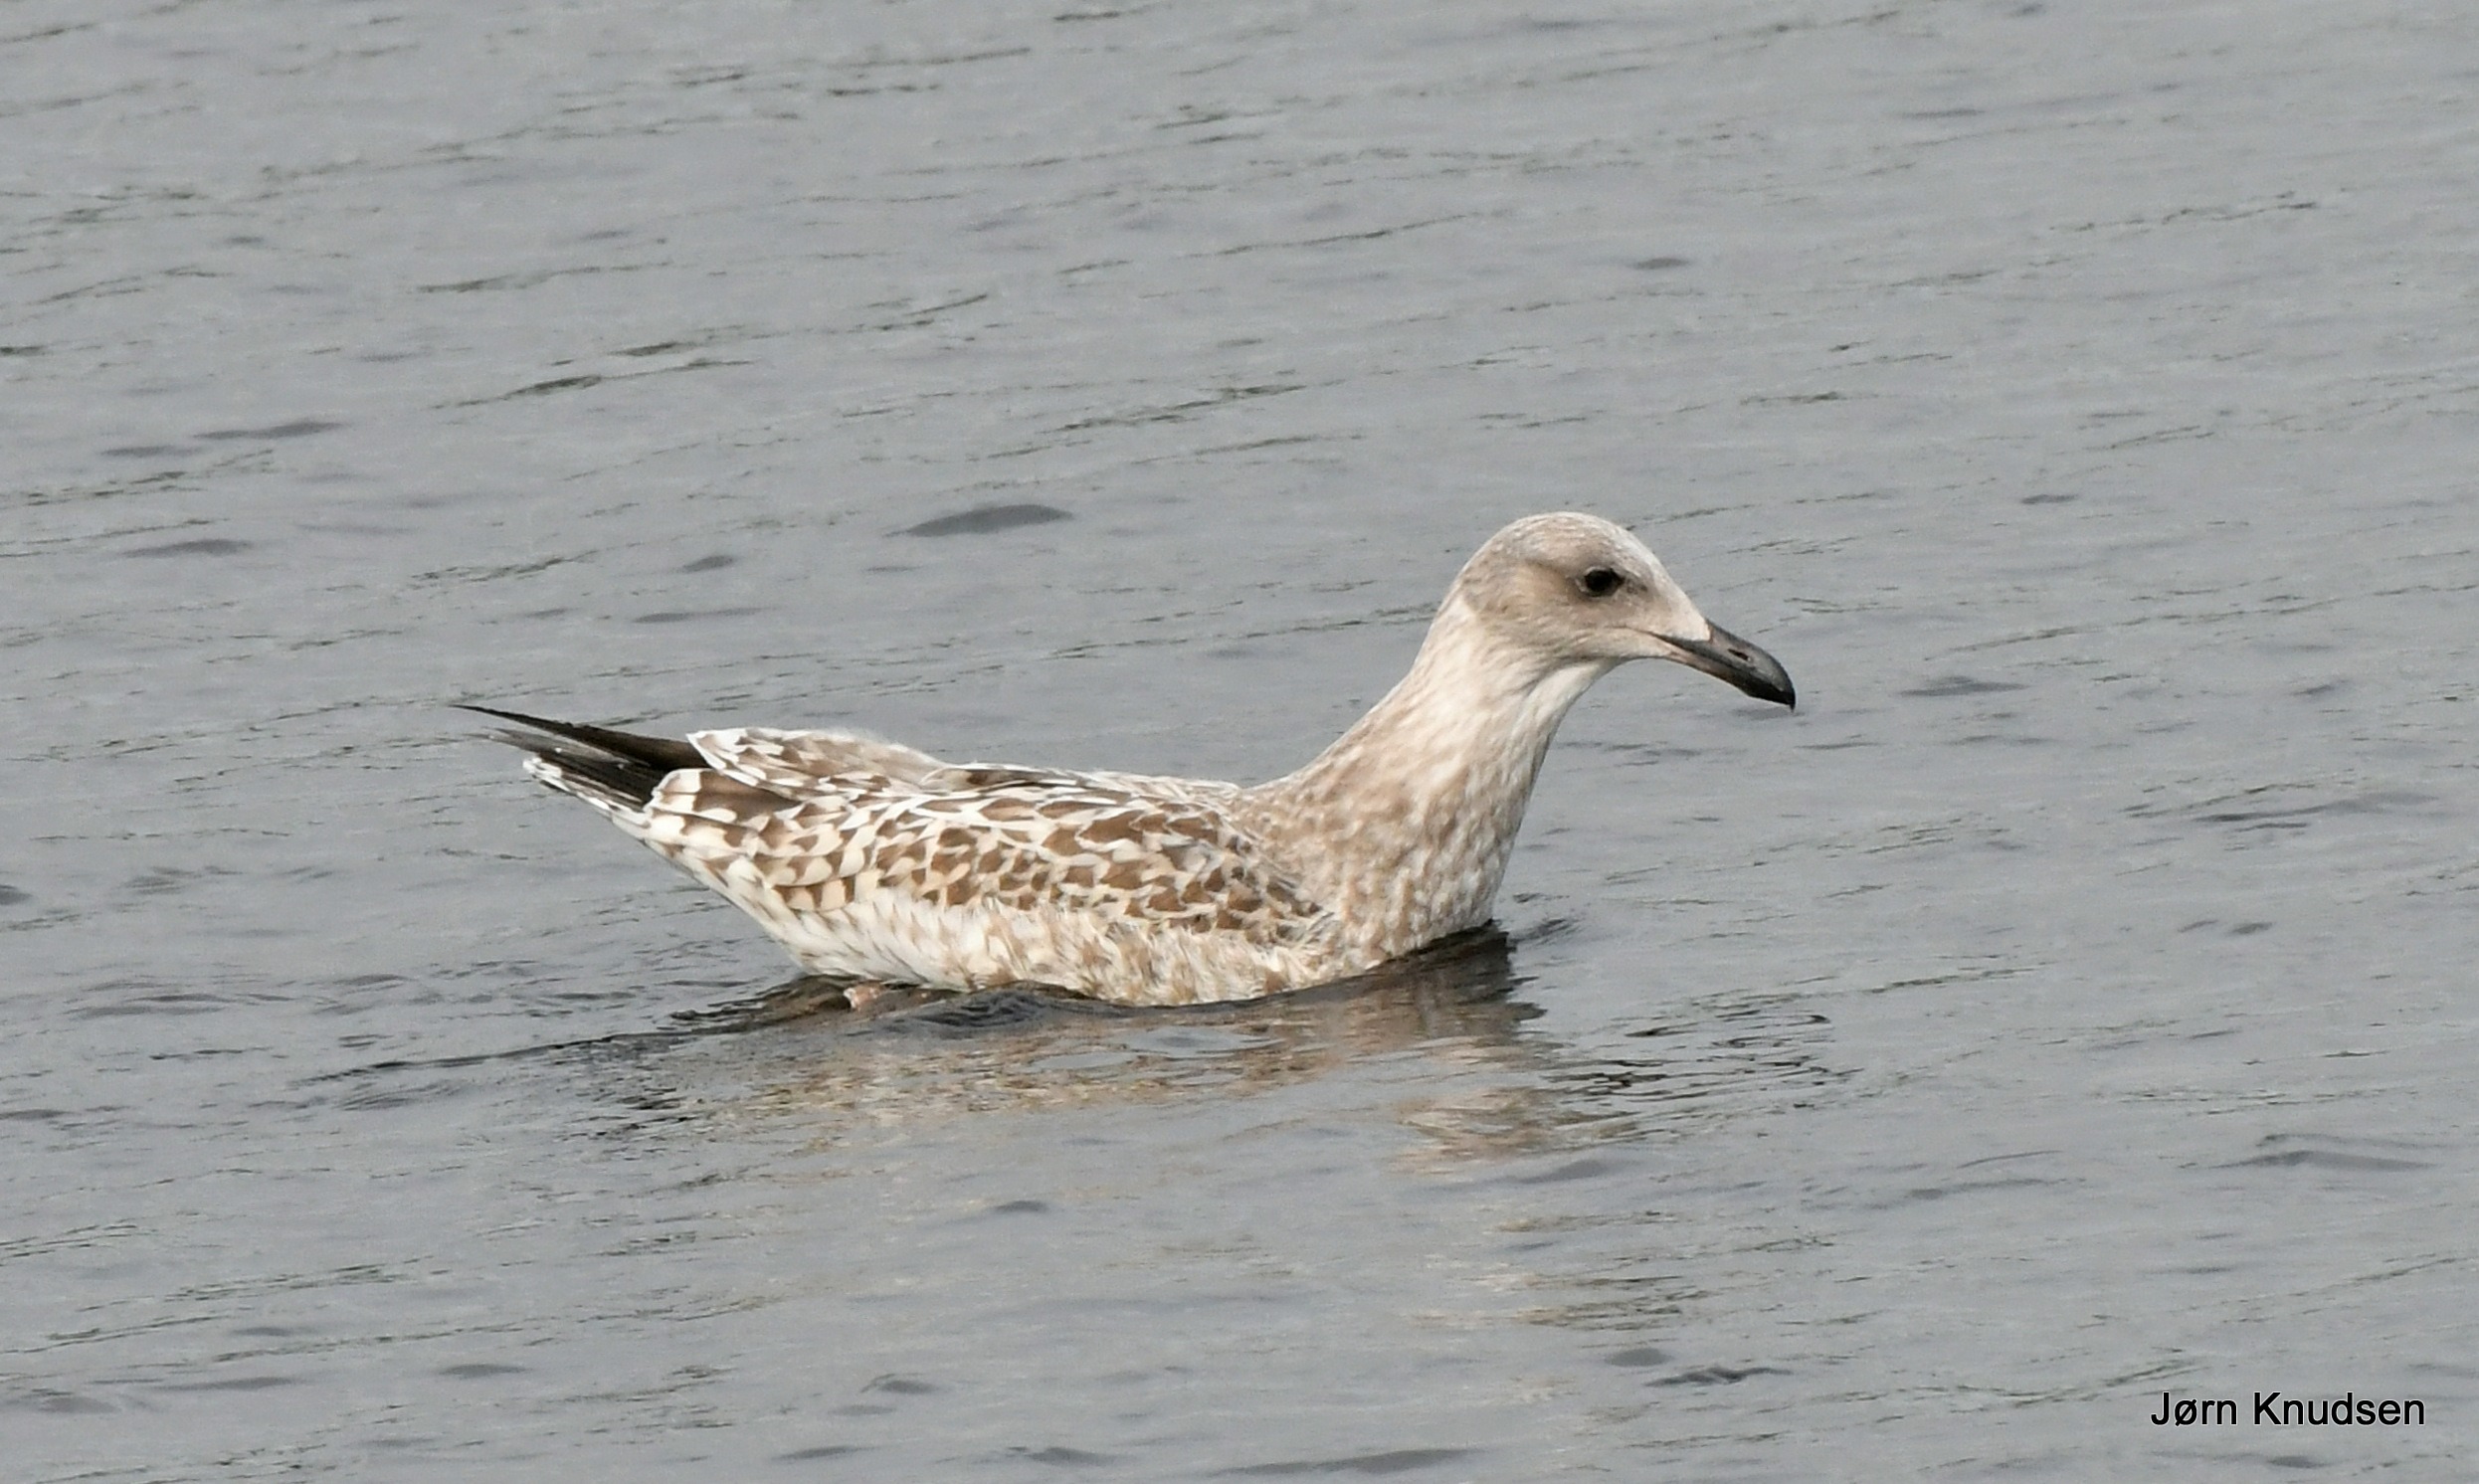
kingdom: Animalia
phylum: Chordata
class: Aves
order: Charadriiformes
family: Laridae
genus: Larus
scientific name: Larus argentatus
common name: Sølvmåge
